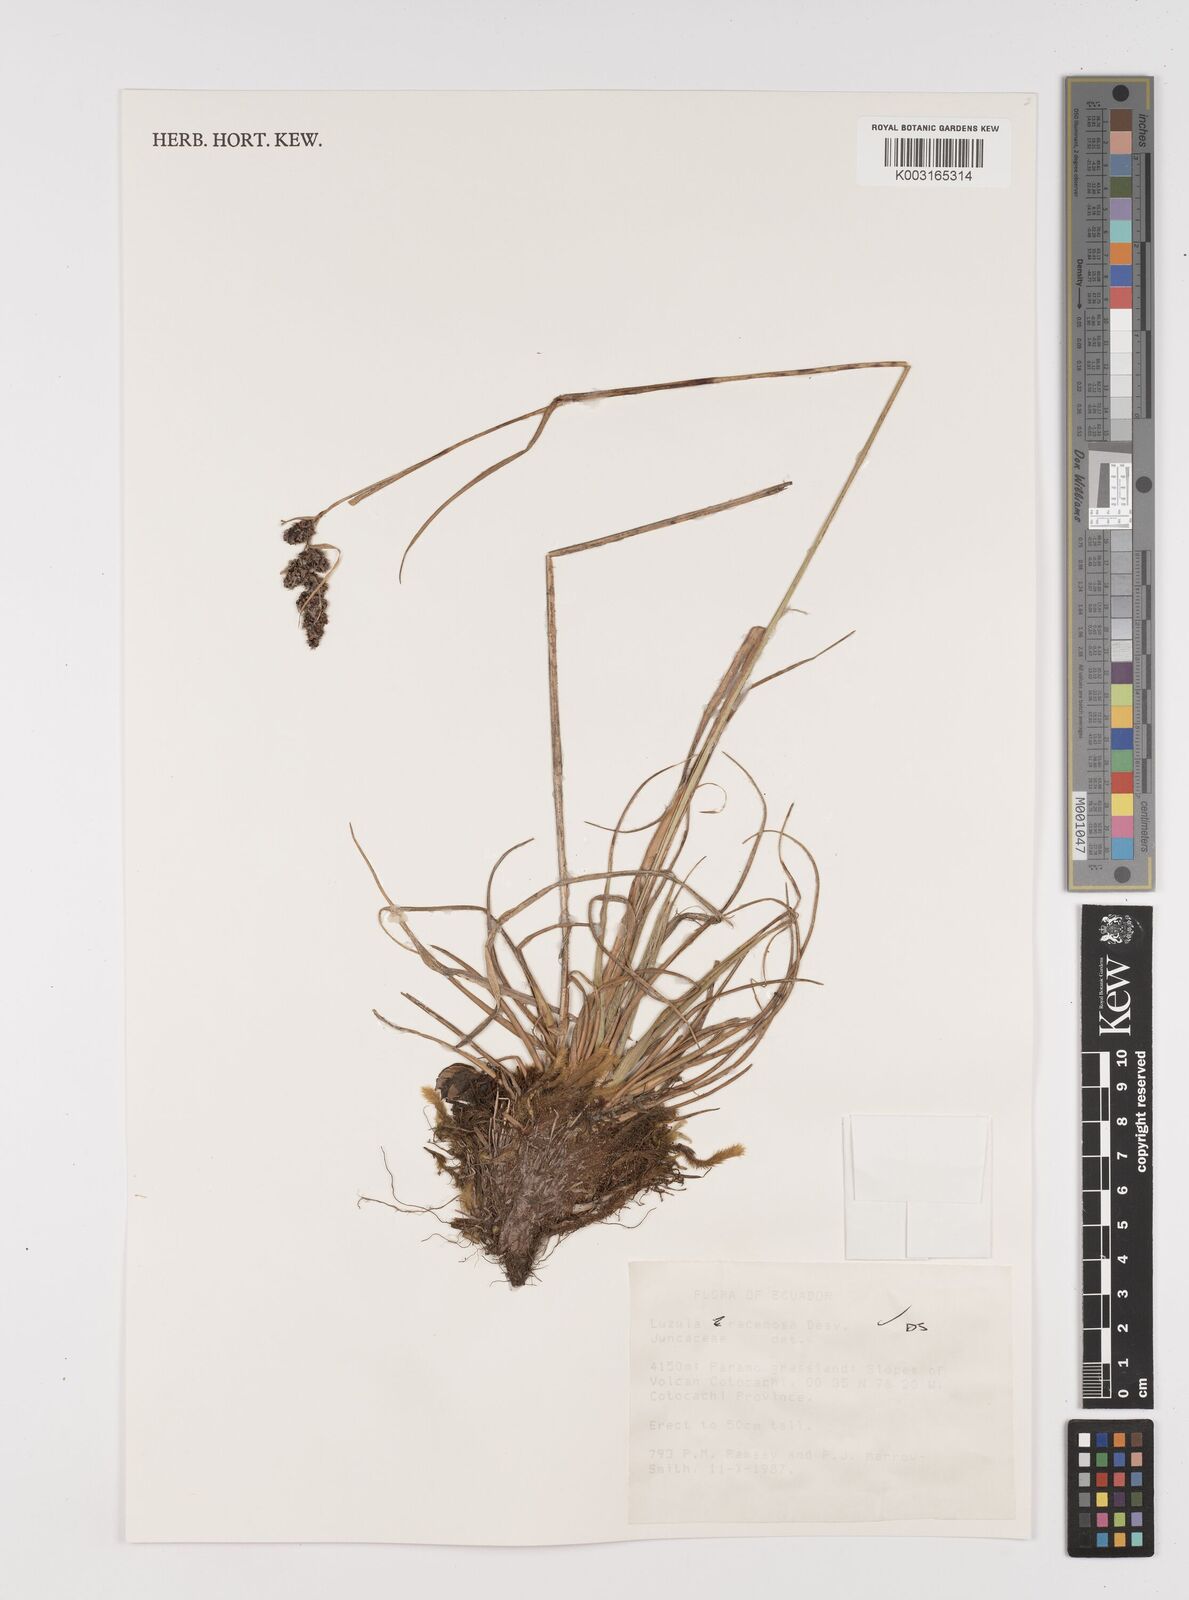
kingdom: Plantae
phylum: Tracheophyta
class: Liliopsida
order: Poales
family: Juncaceae
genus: Luzula
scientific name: Luzula racemosa
